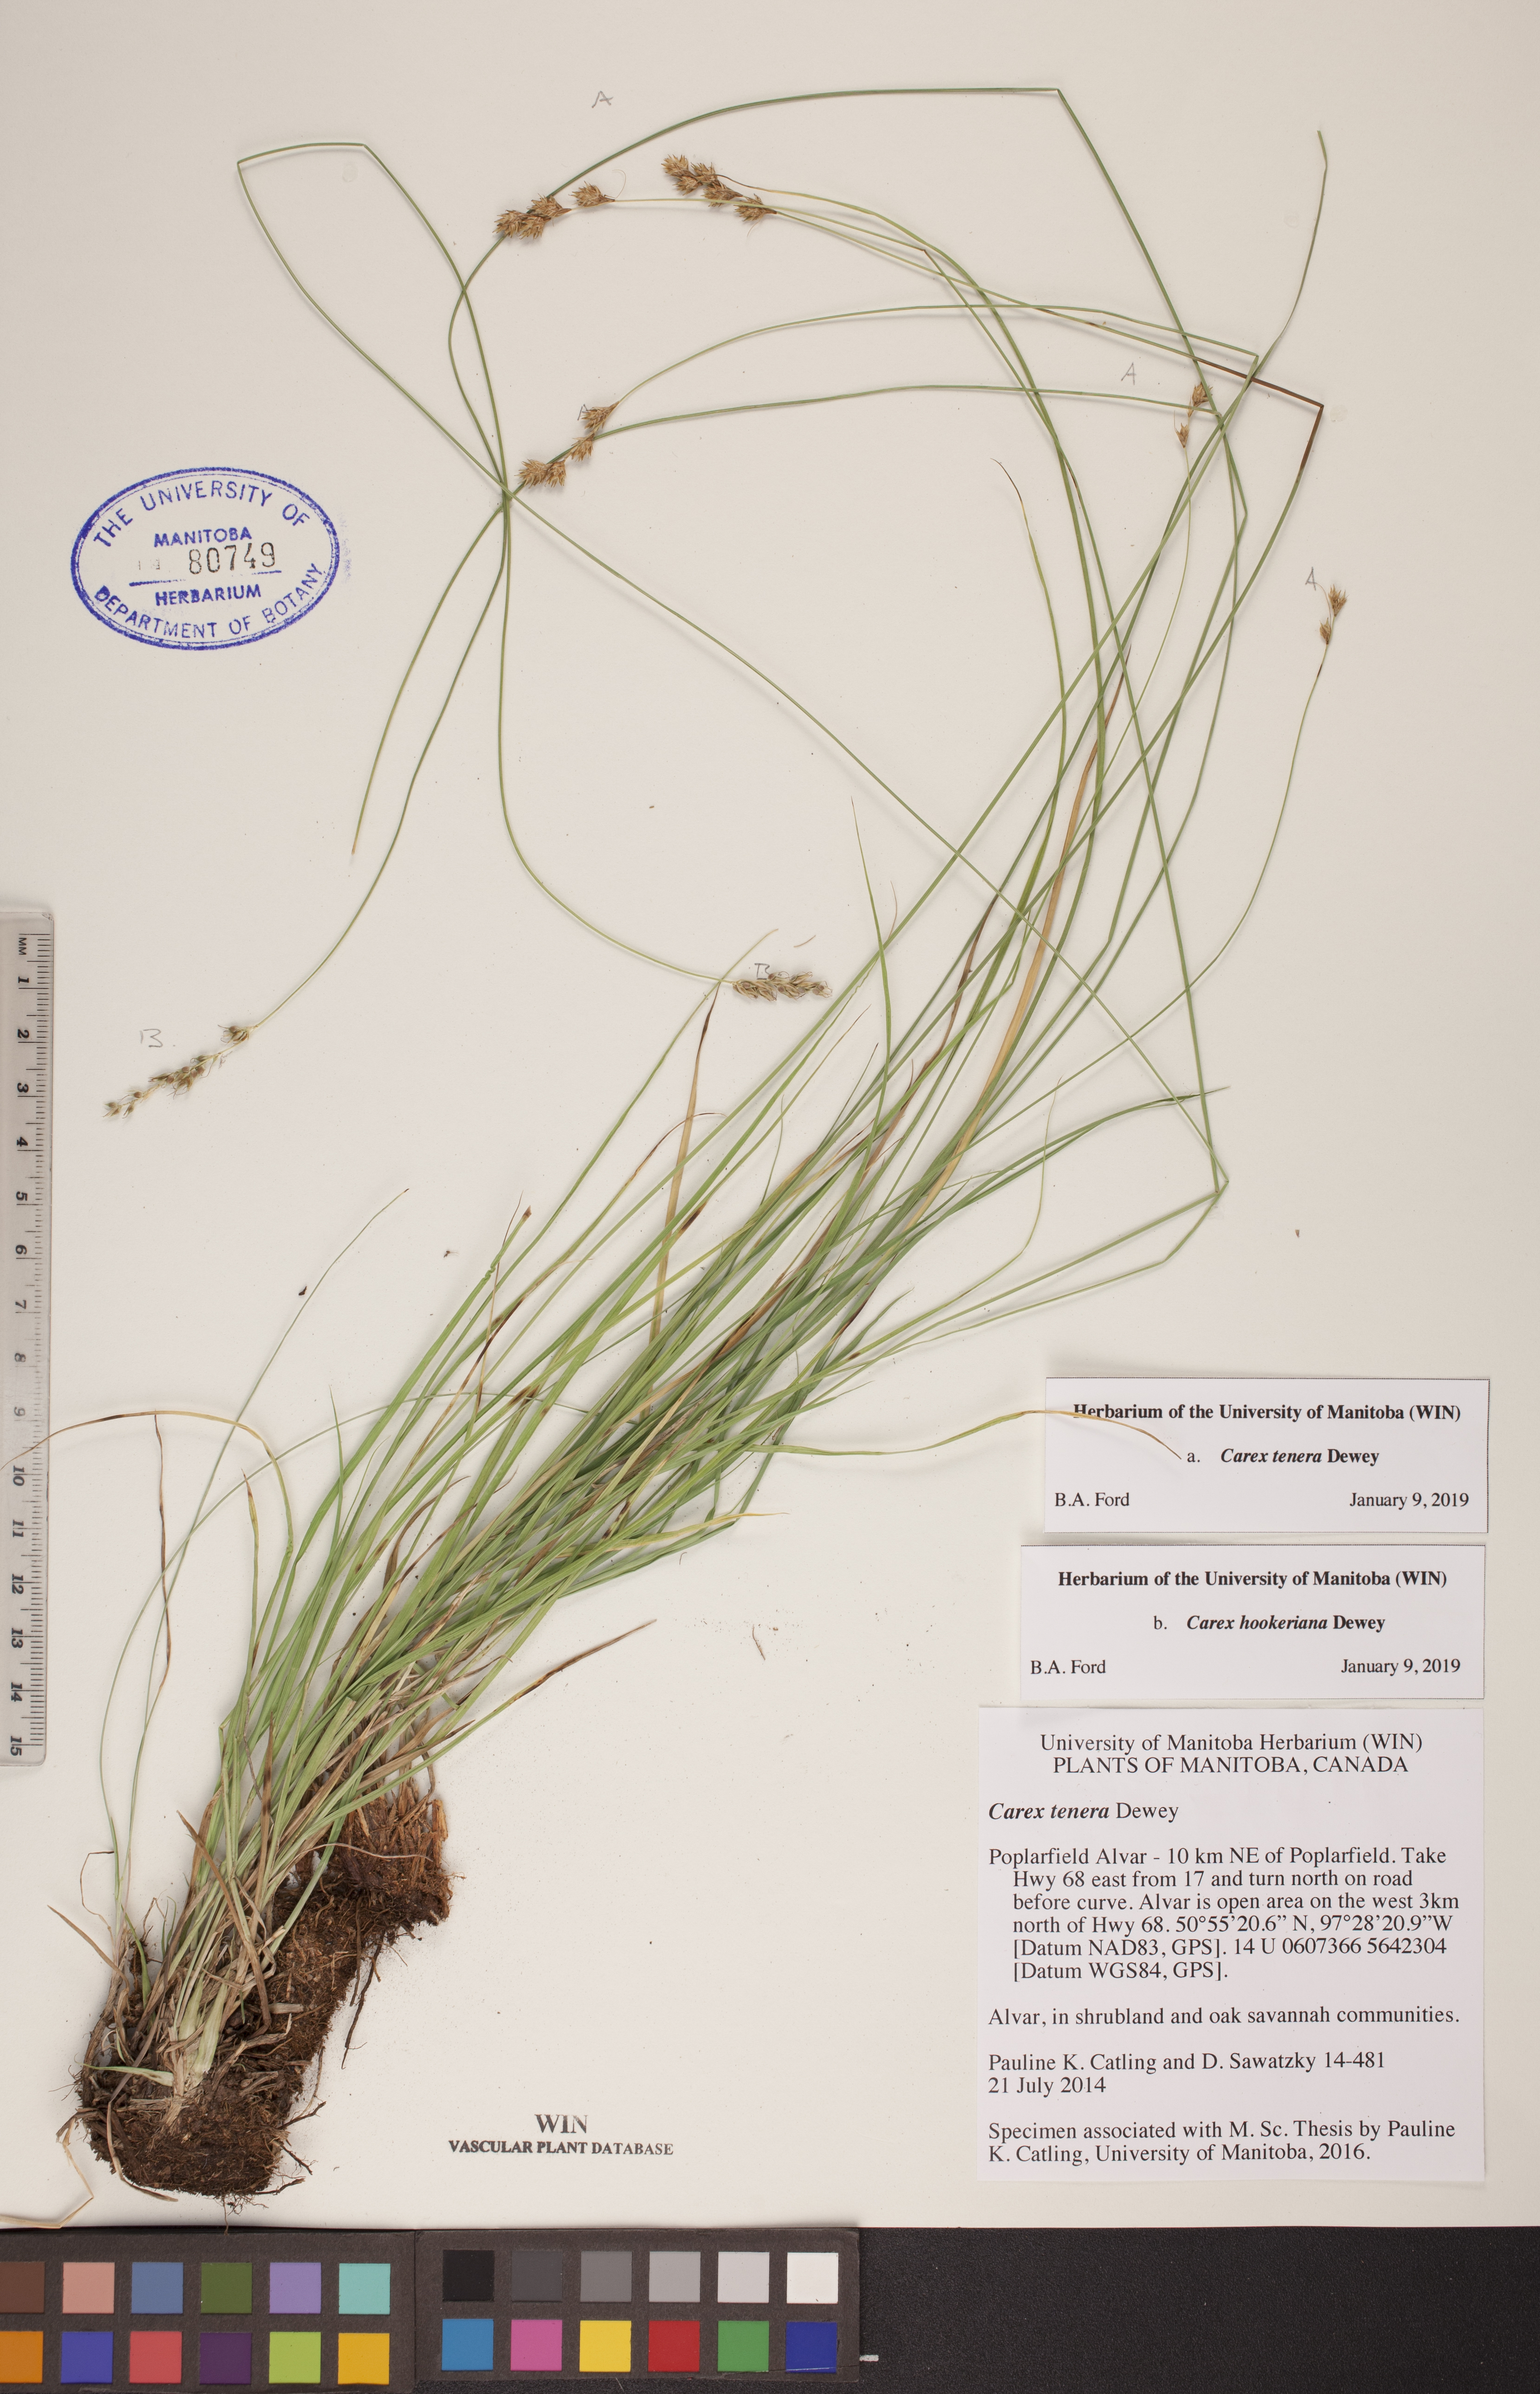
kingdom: Plantae
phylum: Tracheophyta
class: Liliopsida
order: Poales
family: Cyperaceae
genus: Carex
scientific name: Carex tenera
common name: Broad-fruited sedge
